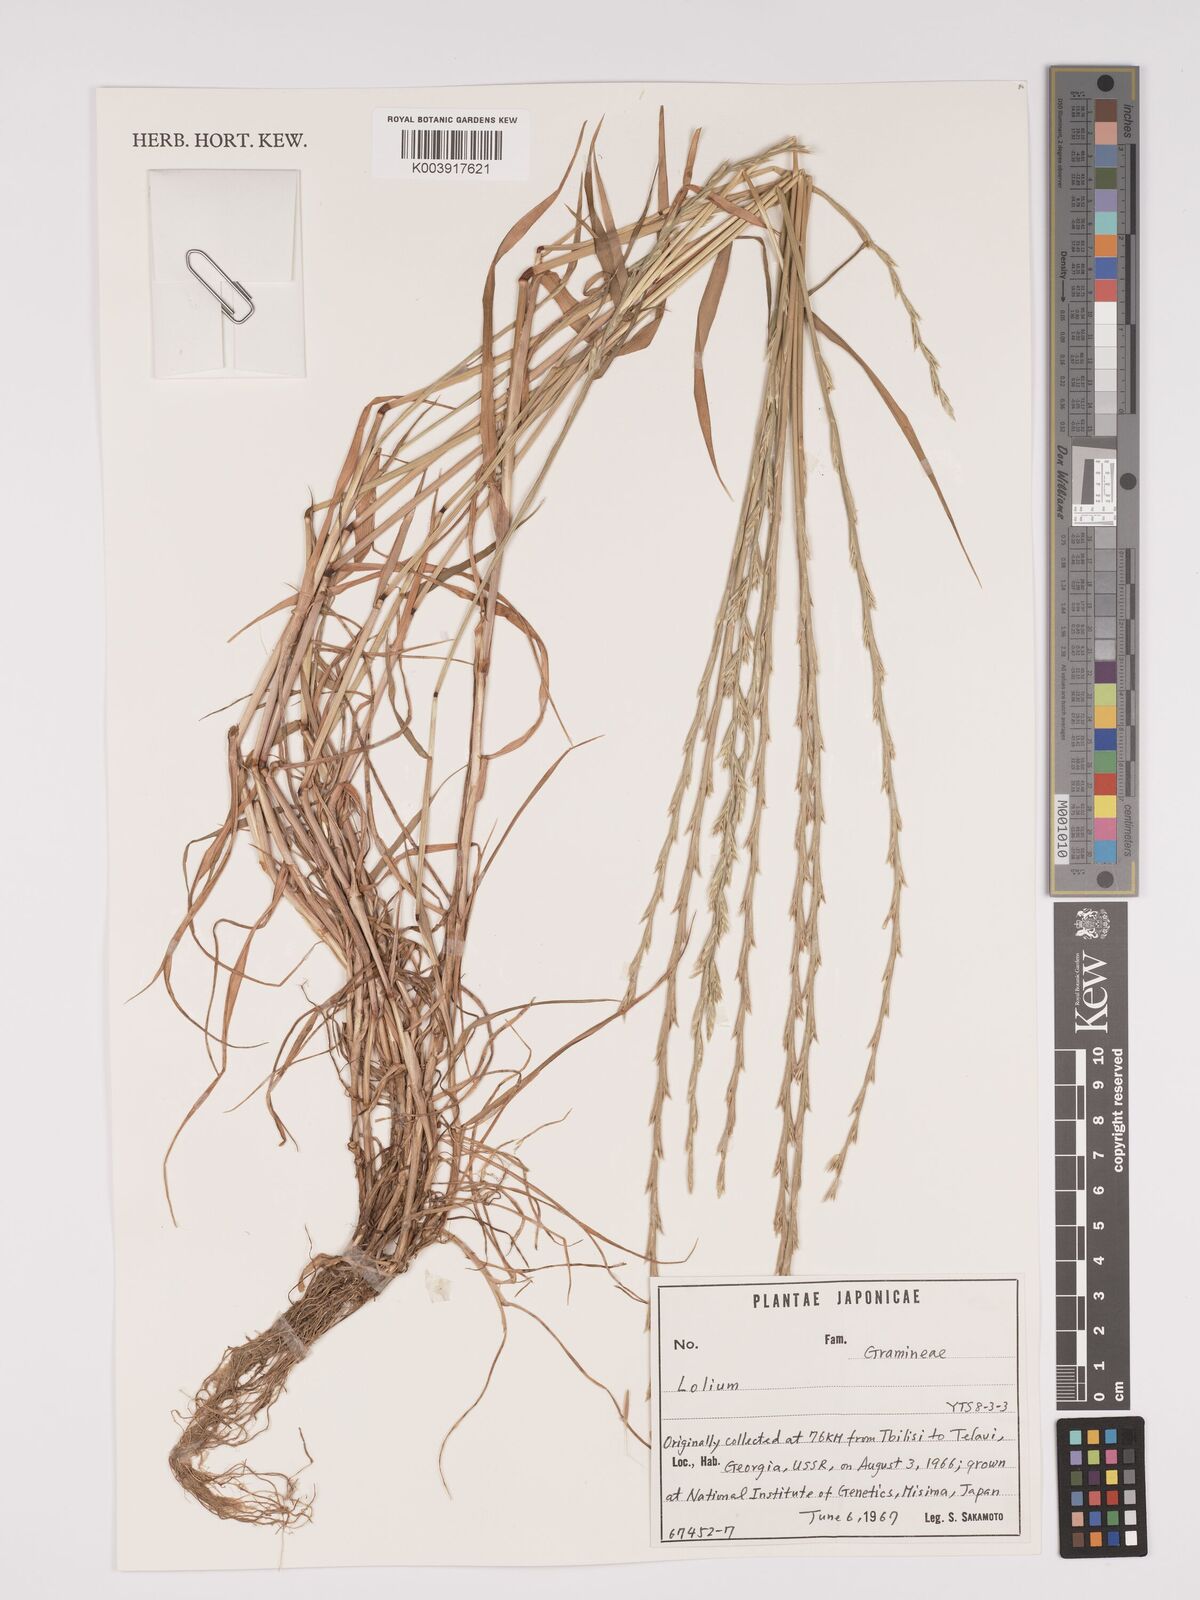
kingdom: Plantae
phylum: Tracheophyta
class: Liliopsida
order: Poales
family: Poaceae
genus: Lolium
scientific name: Lolium
